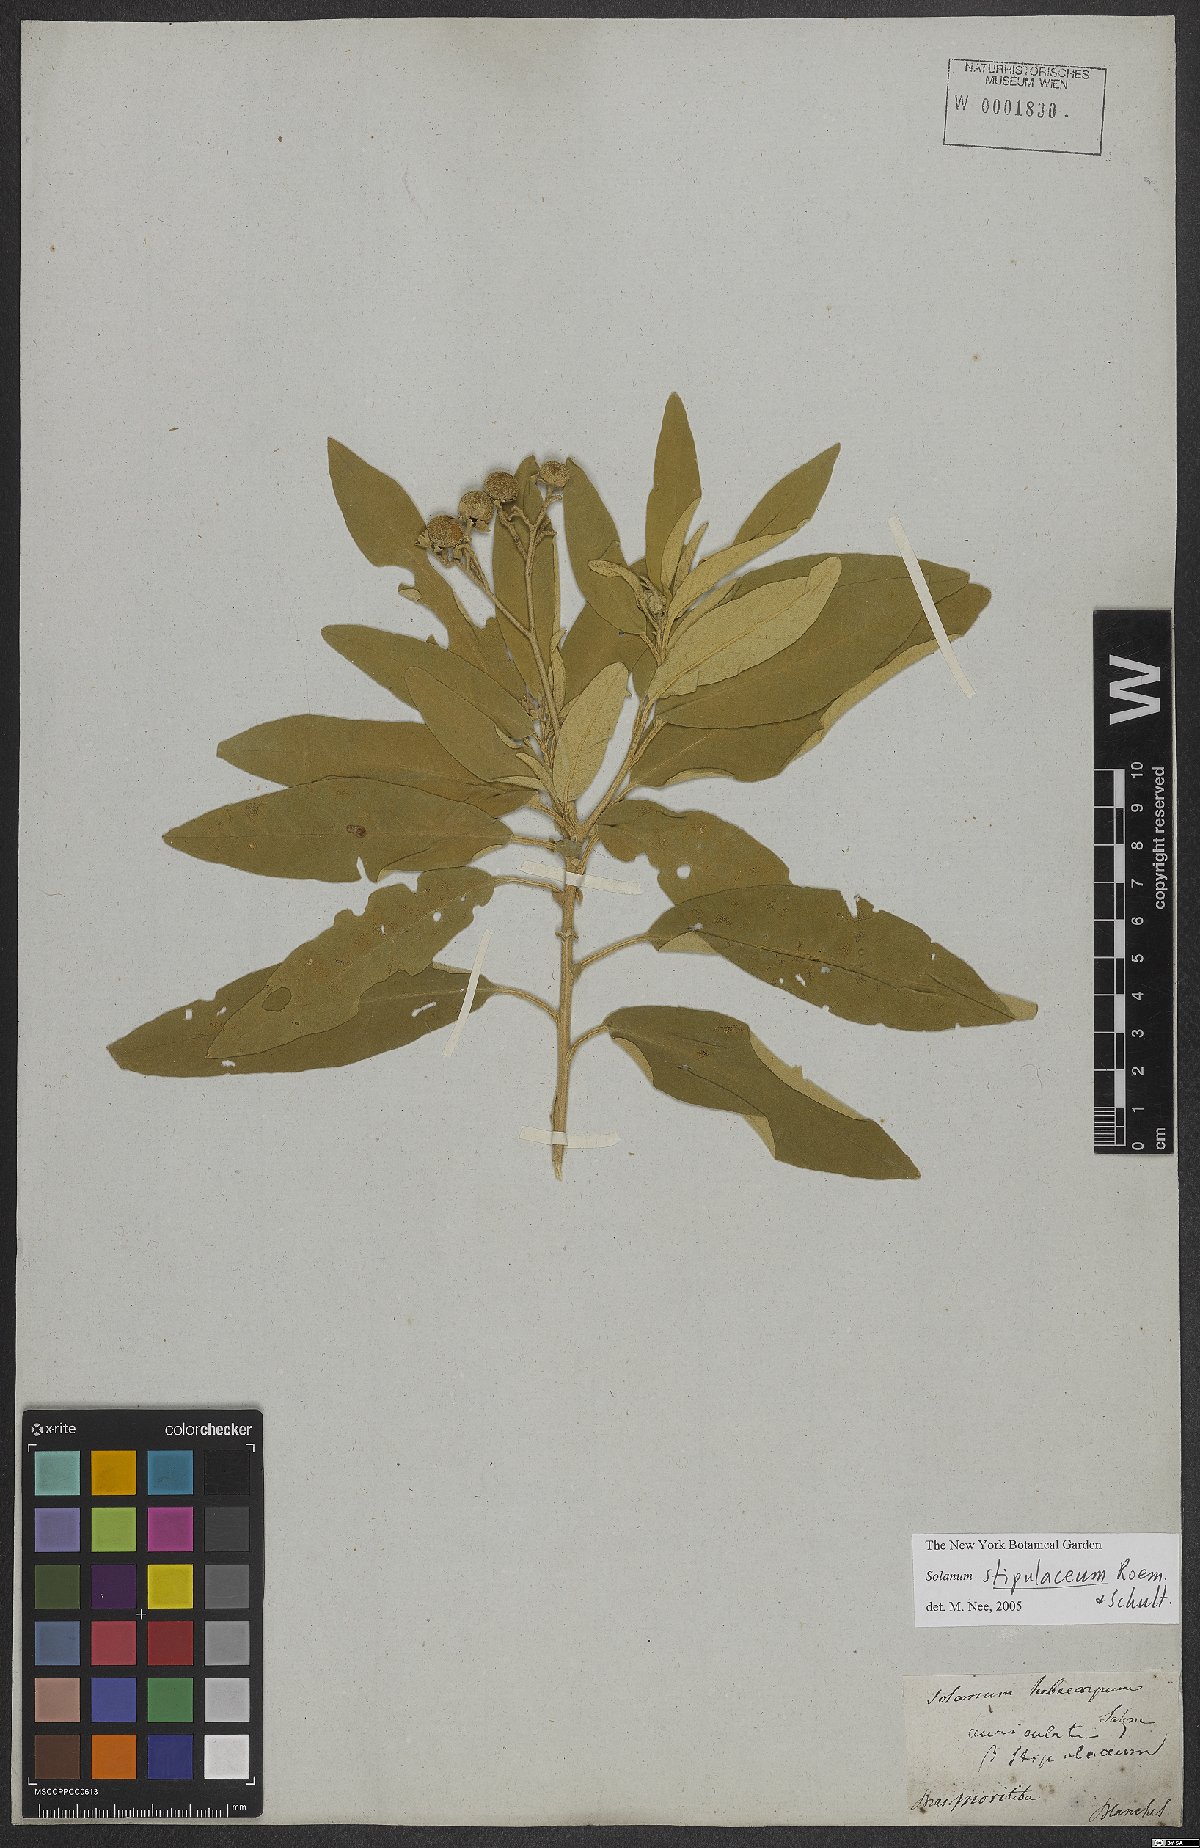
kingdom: Plantae
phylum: Tracheophyta
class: Magnoliopsida
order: Solanales
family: Solanaceae
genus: Solanum
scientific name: Solanum stipulaceum
